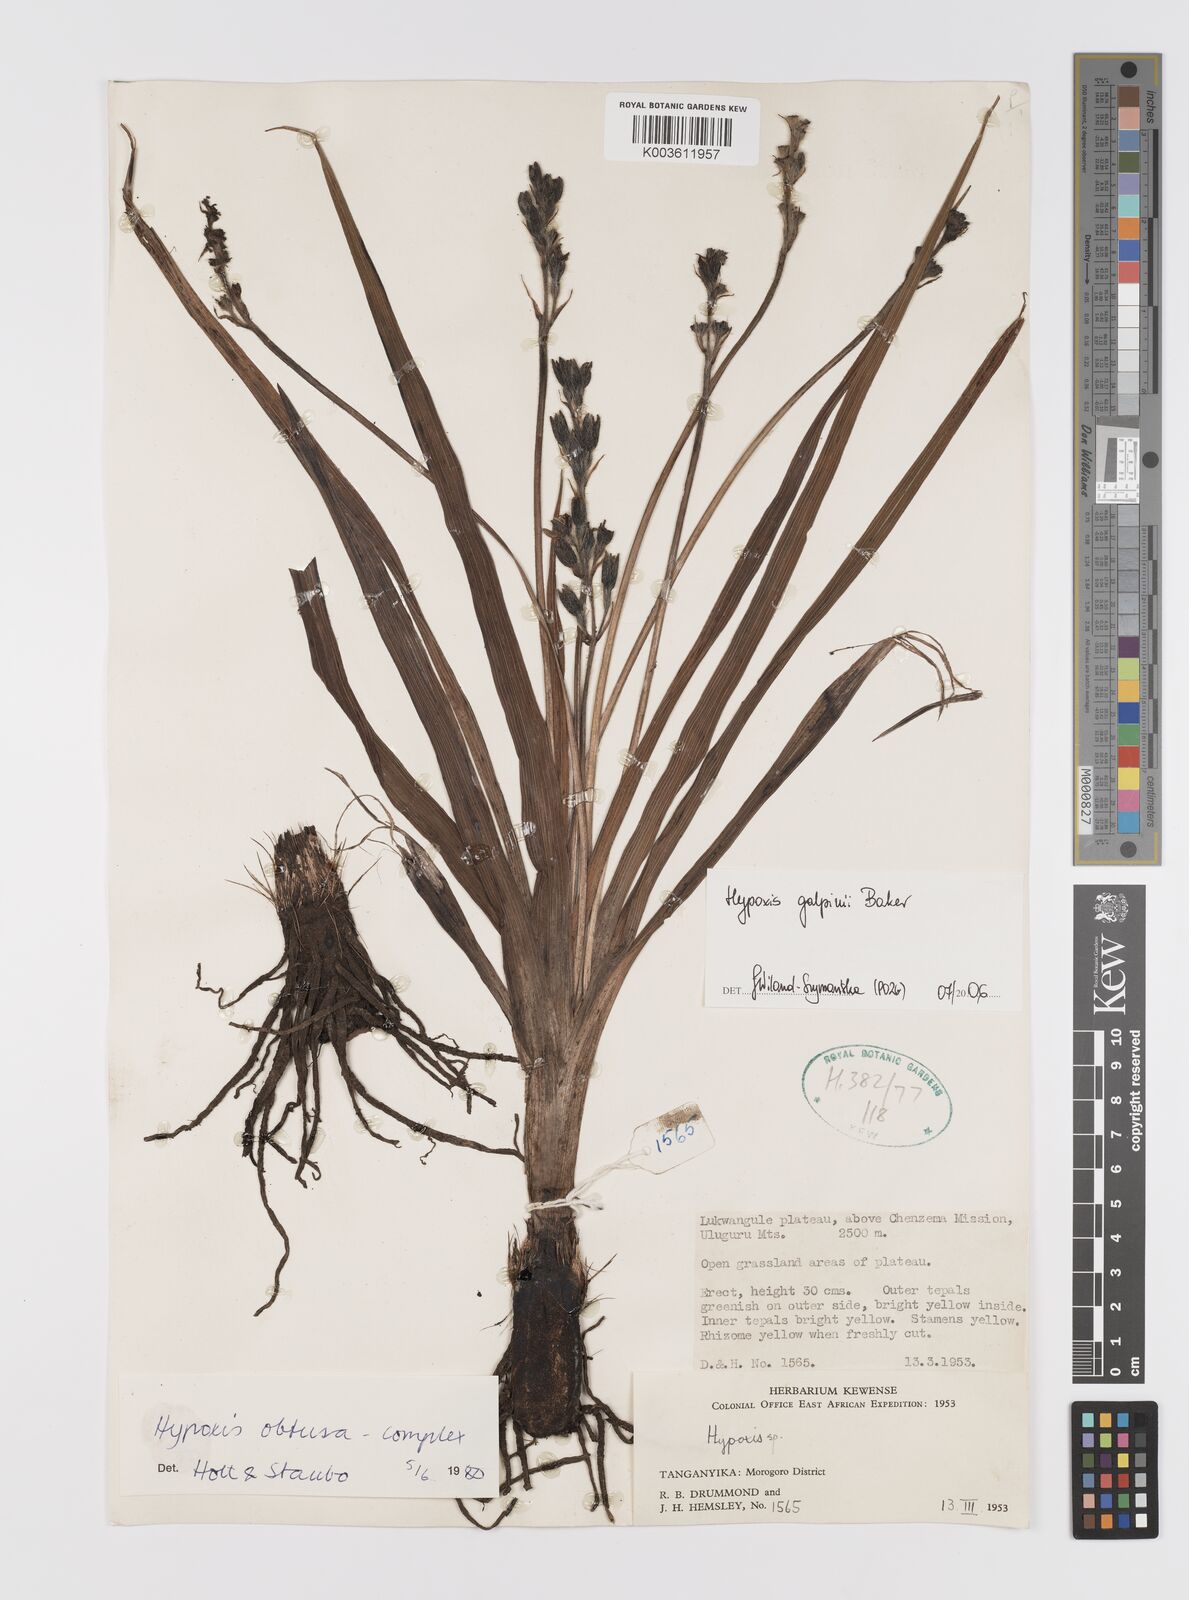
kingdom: Plantae
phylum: Tracheophyta
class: Liliopsida
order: Asparagales
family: Hypoxidaceae
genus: Hypoxis
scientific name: Hypoxis galpinii
